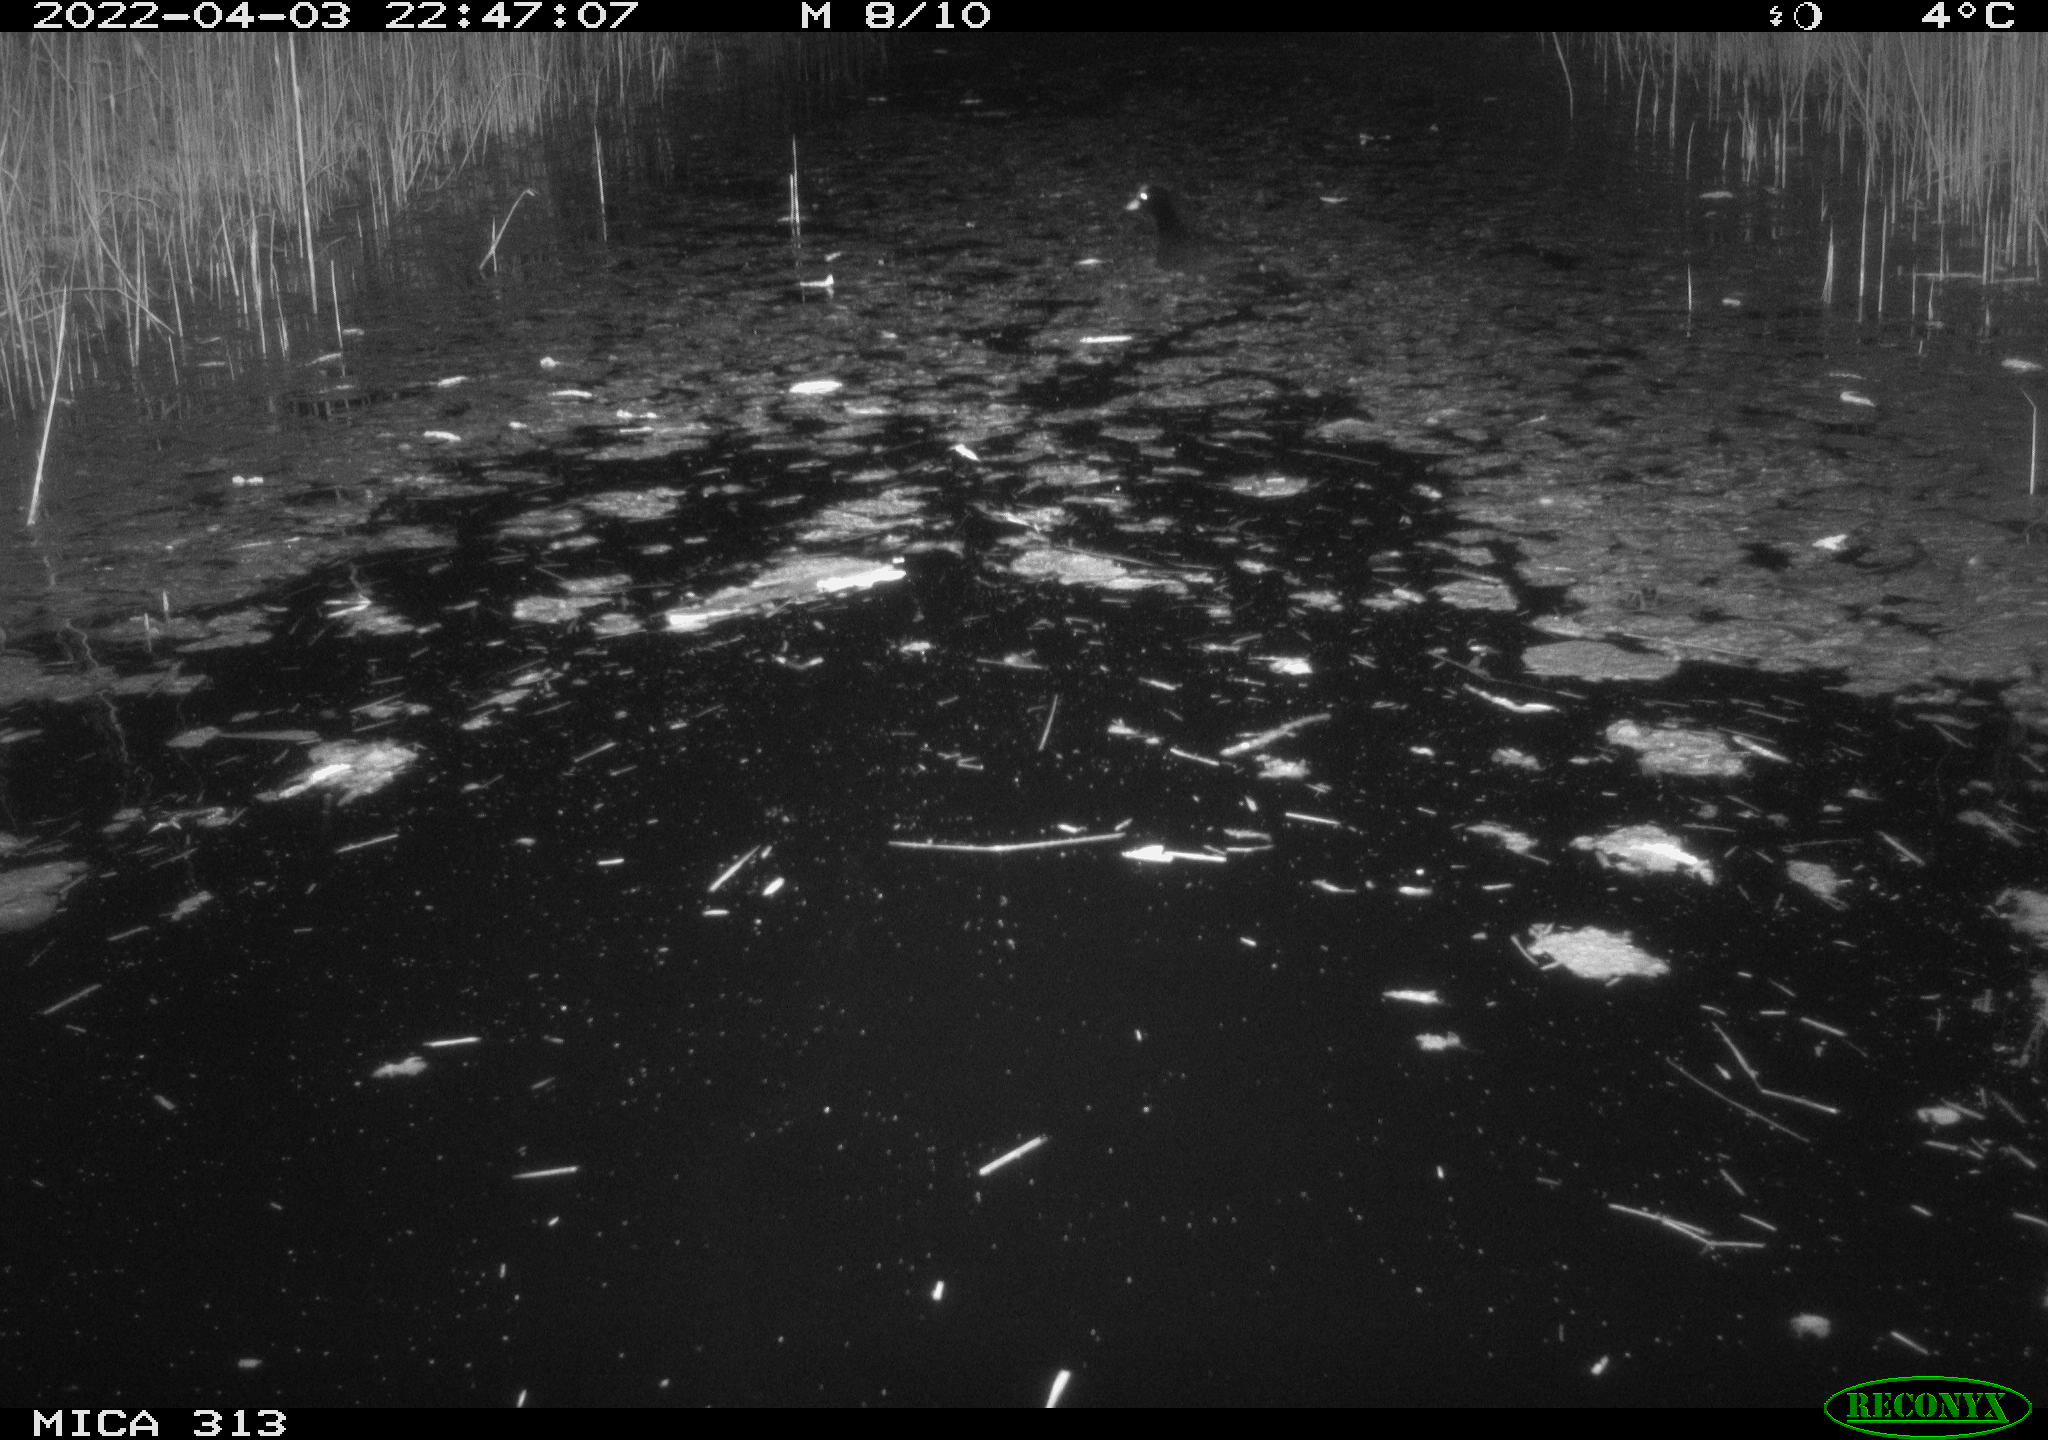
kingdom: Animalia
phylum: Chordata
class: Aves
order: Gruiformes
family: Rallidae
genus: Fulica
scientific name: Fulica atra
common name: Eurasian coot
